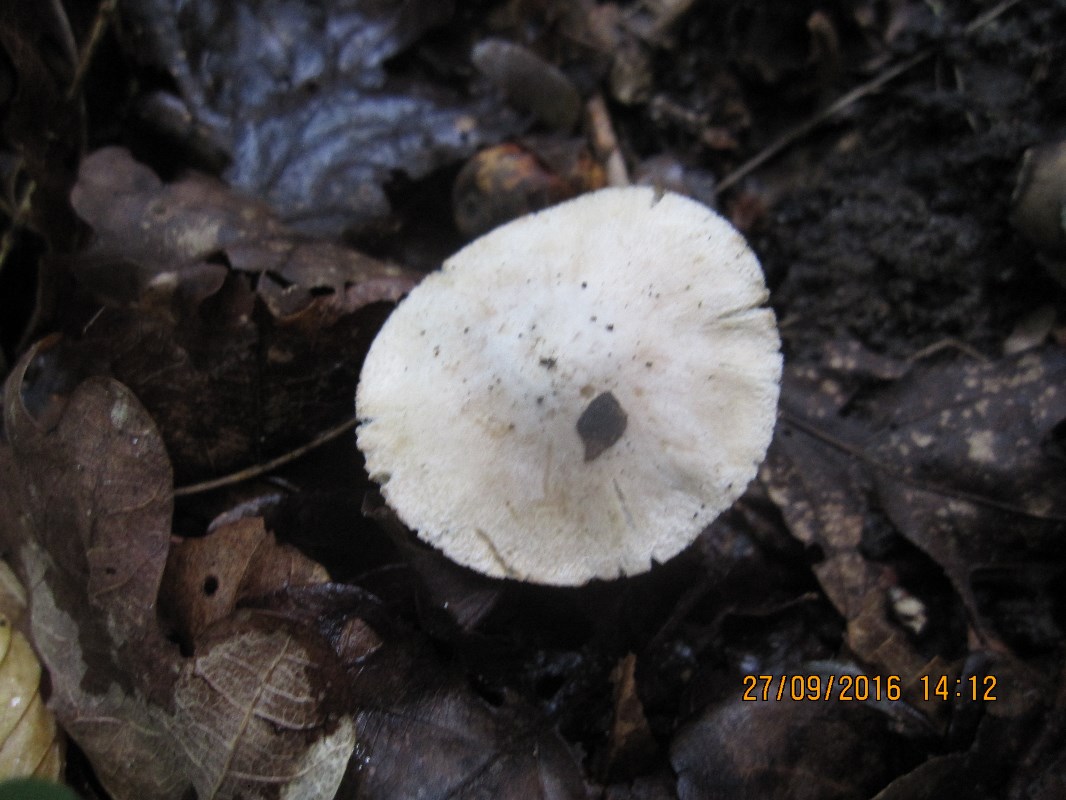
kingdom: Fungi
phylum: Basidiomycota
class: Agaricomycetes
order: Agaricales
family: Inocybaceae
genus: Inocybe
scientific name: Inocybe margaritispora
